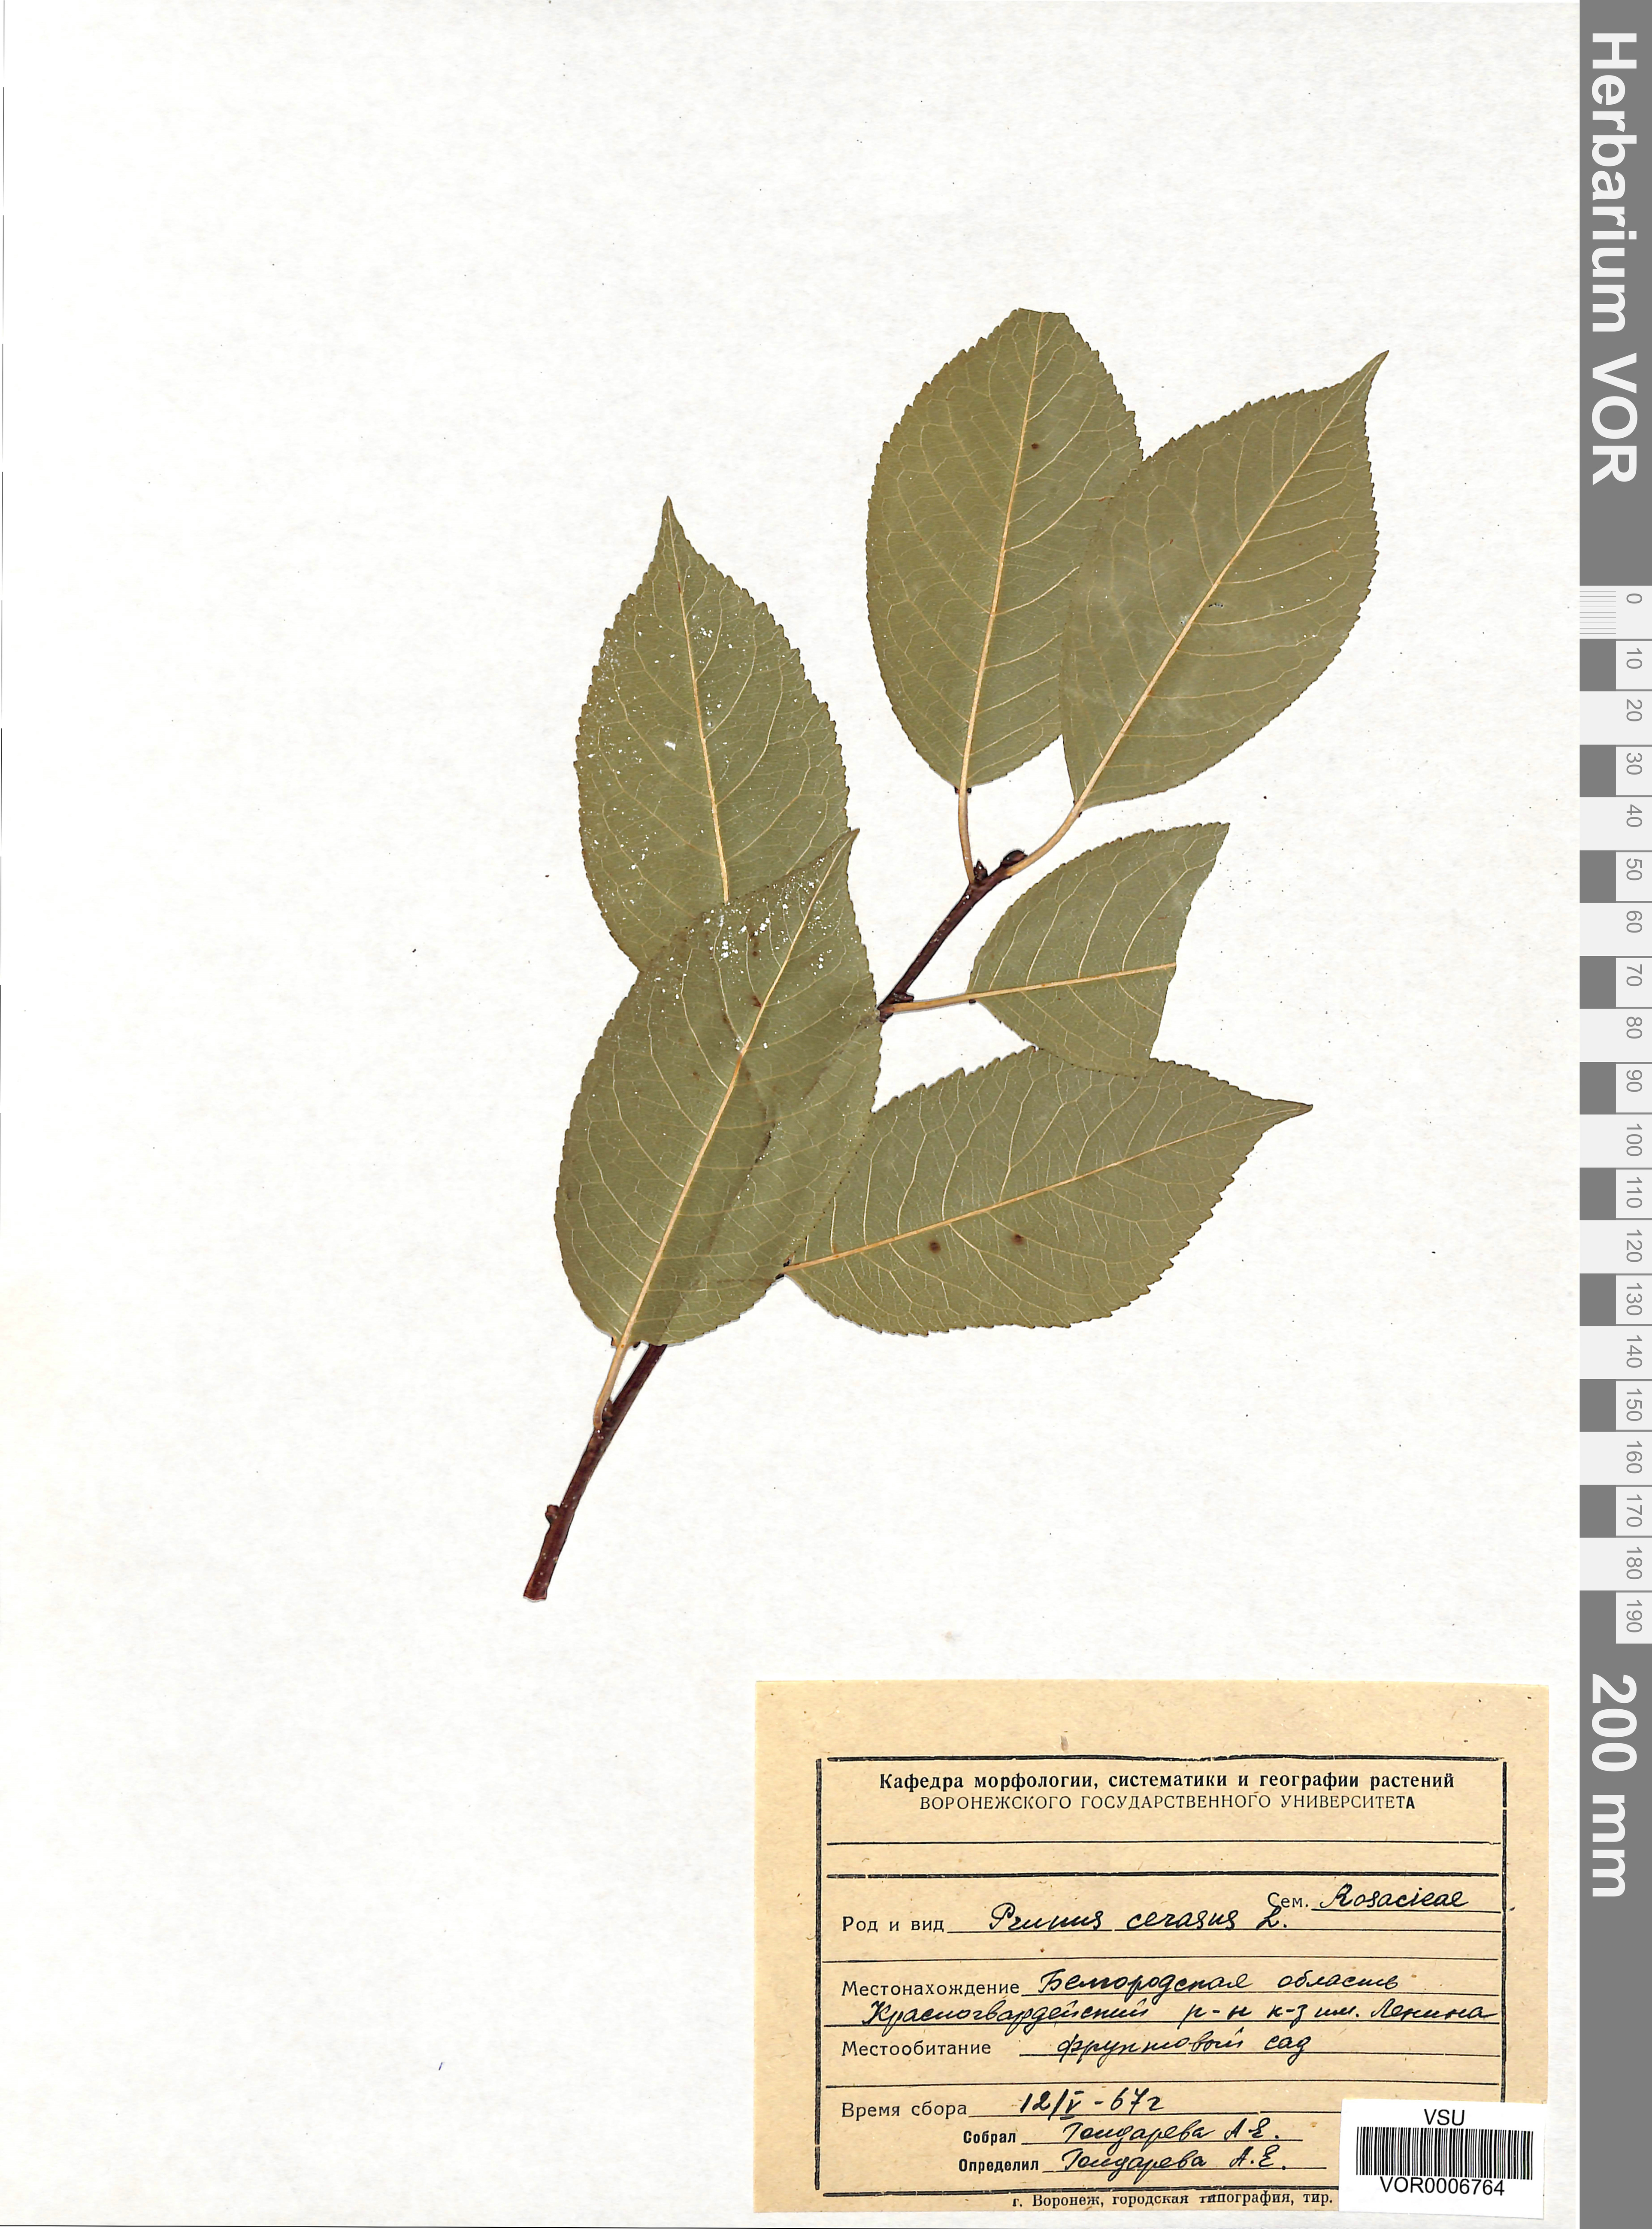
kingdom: Plantae
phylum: Tracheophyta
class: Magnoliopsida
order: Rosales
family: Rosaceae
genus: Prunus
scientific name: Prunus cerasus
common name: Morello cherry
